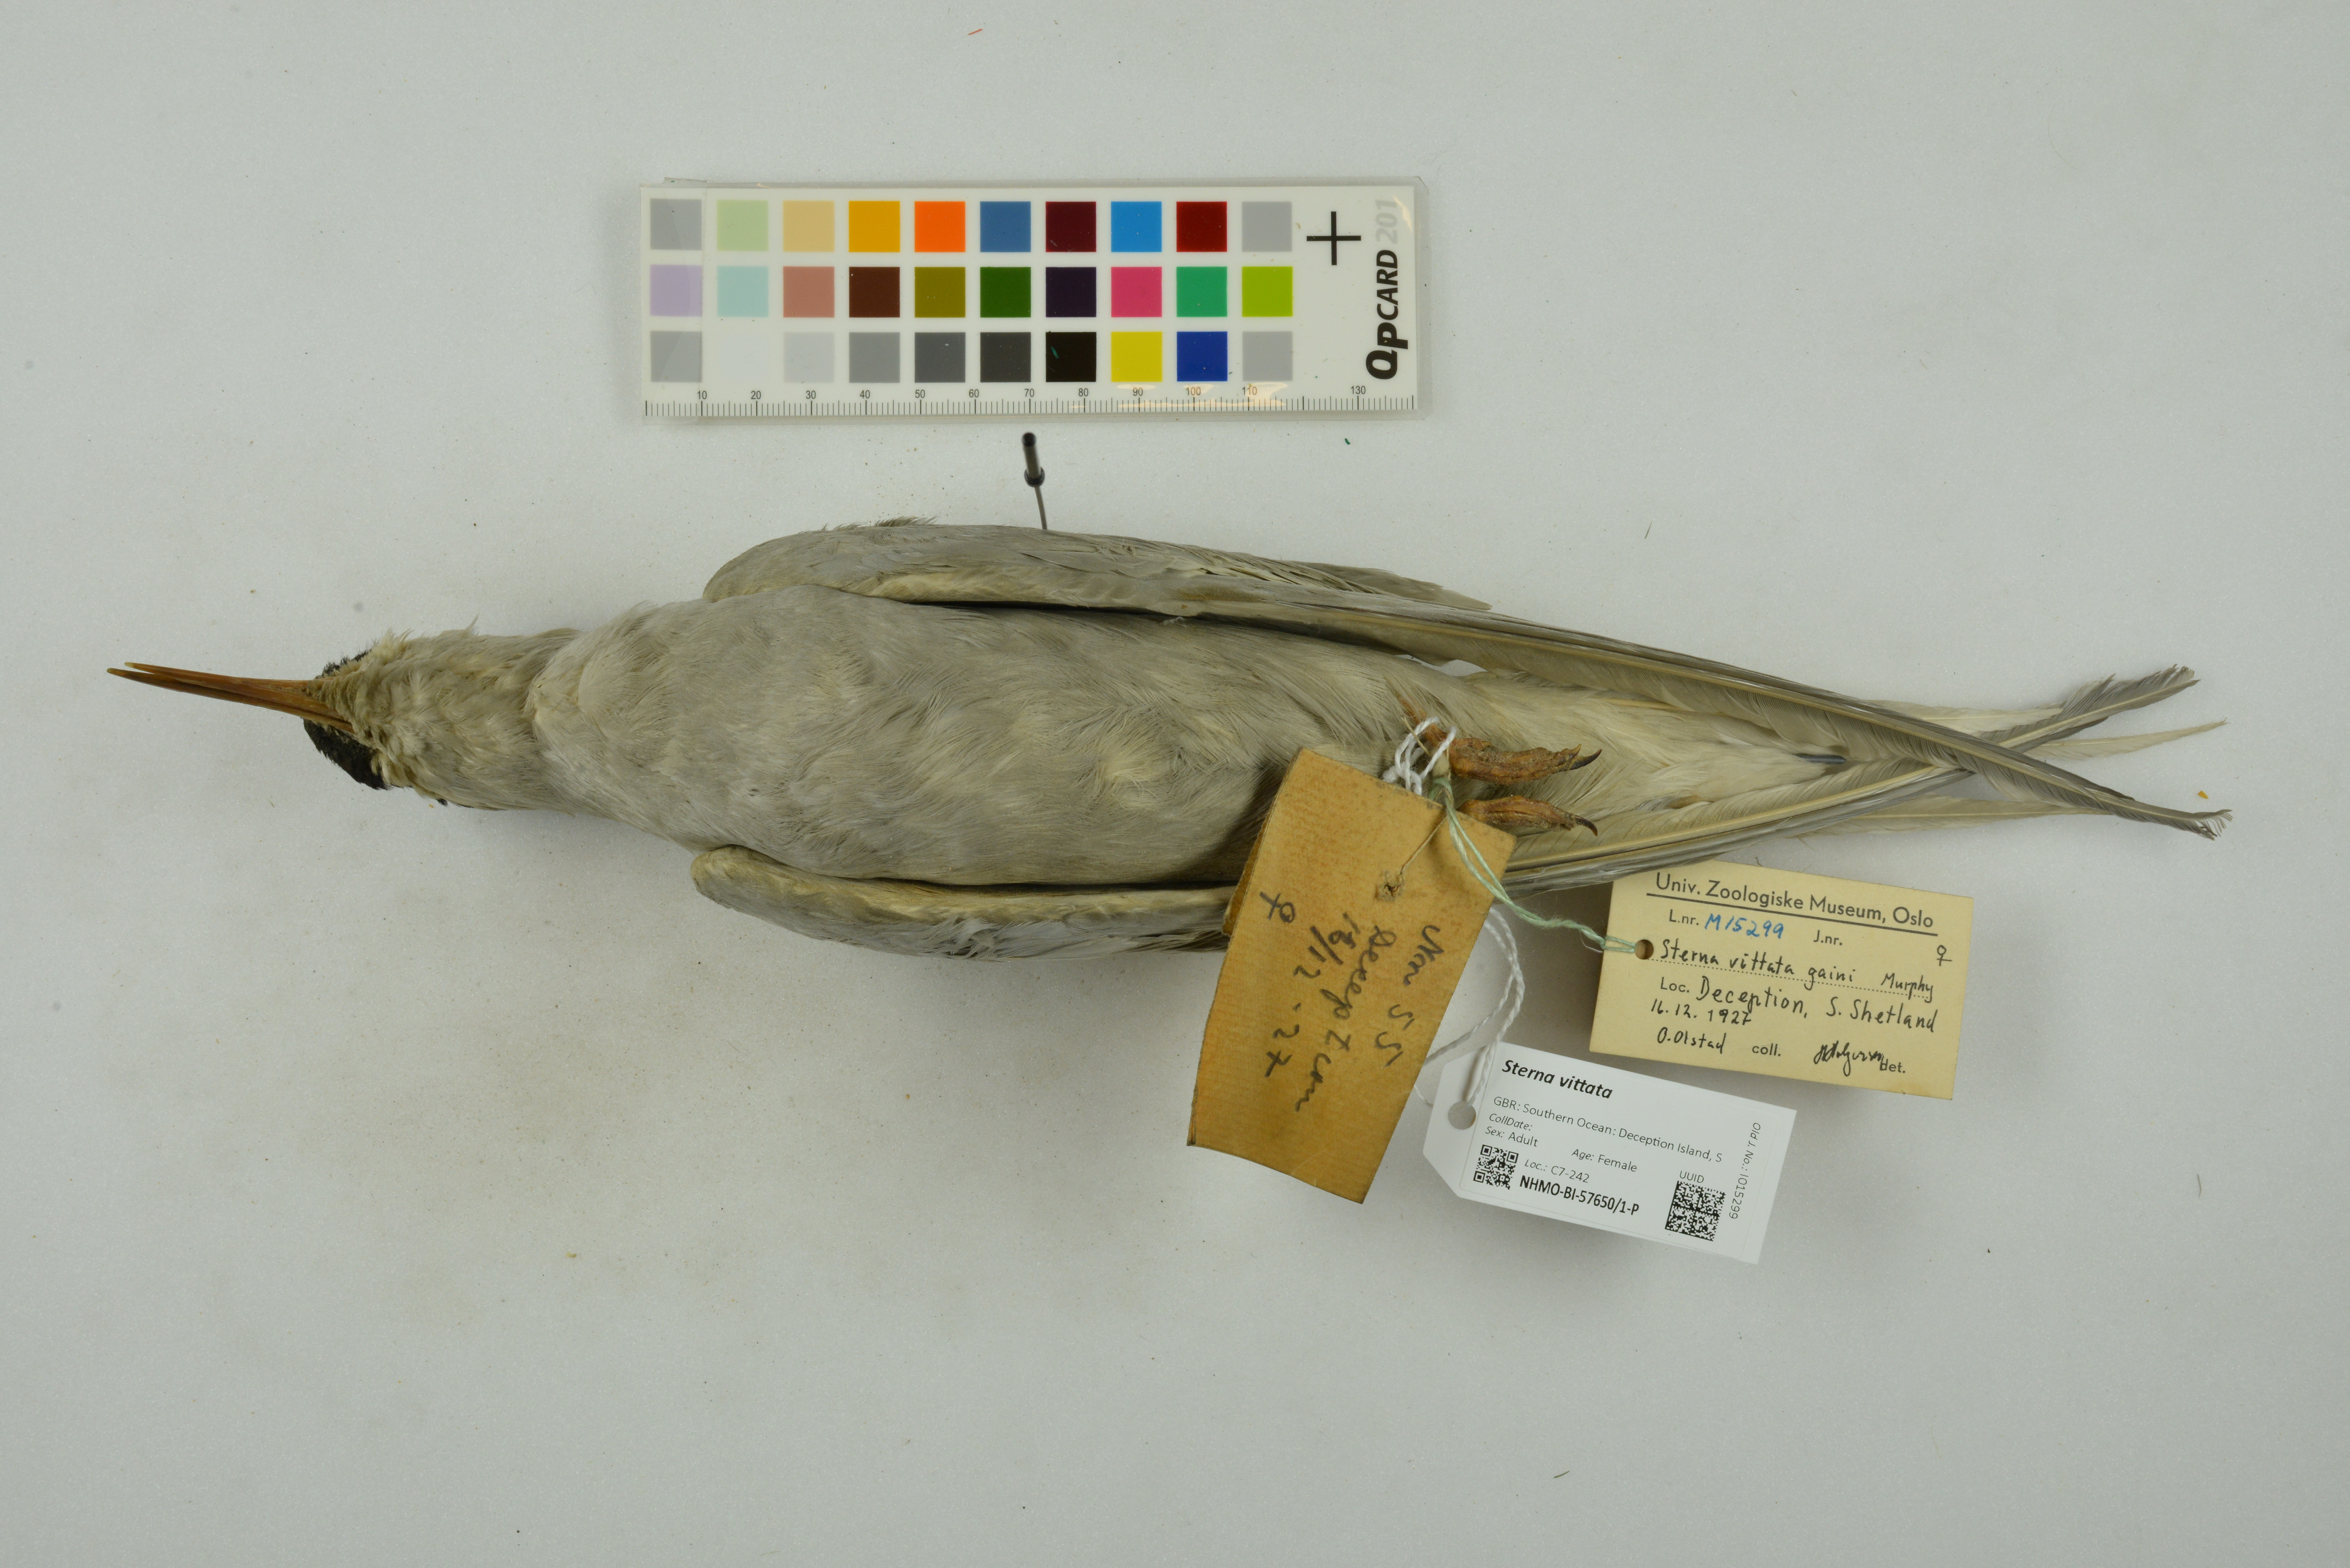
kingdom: Animalia
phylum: Chordata
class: Aves
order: Charadriiformes
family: Laridae
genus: Sterna
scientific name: Sterna vittata
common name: Antarctic tern
